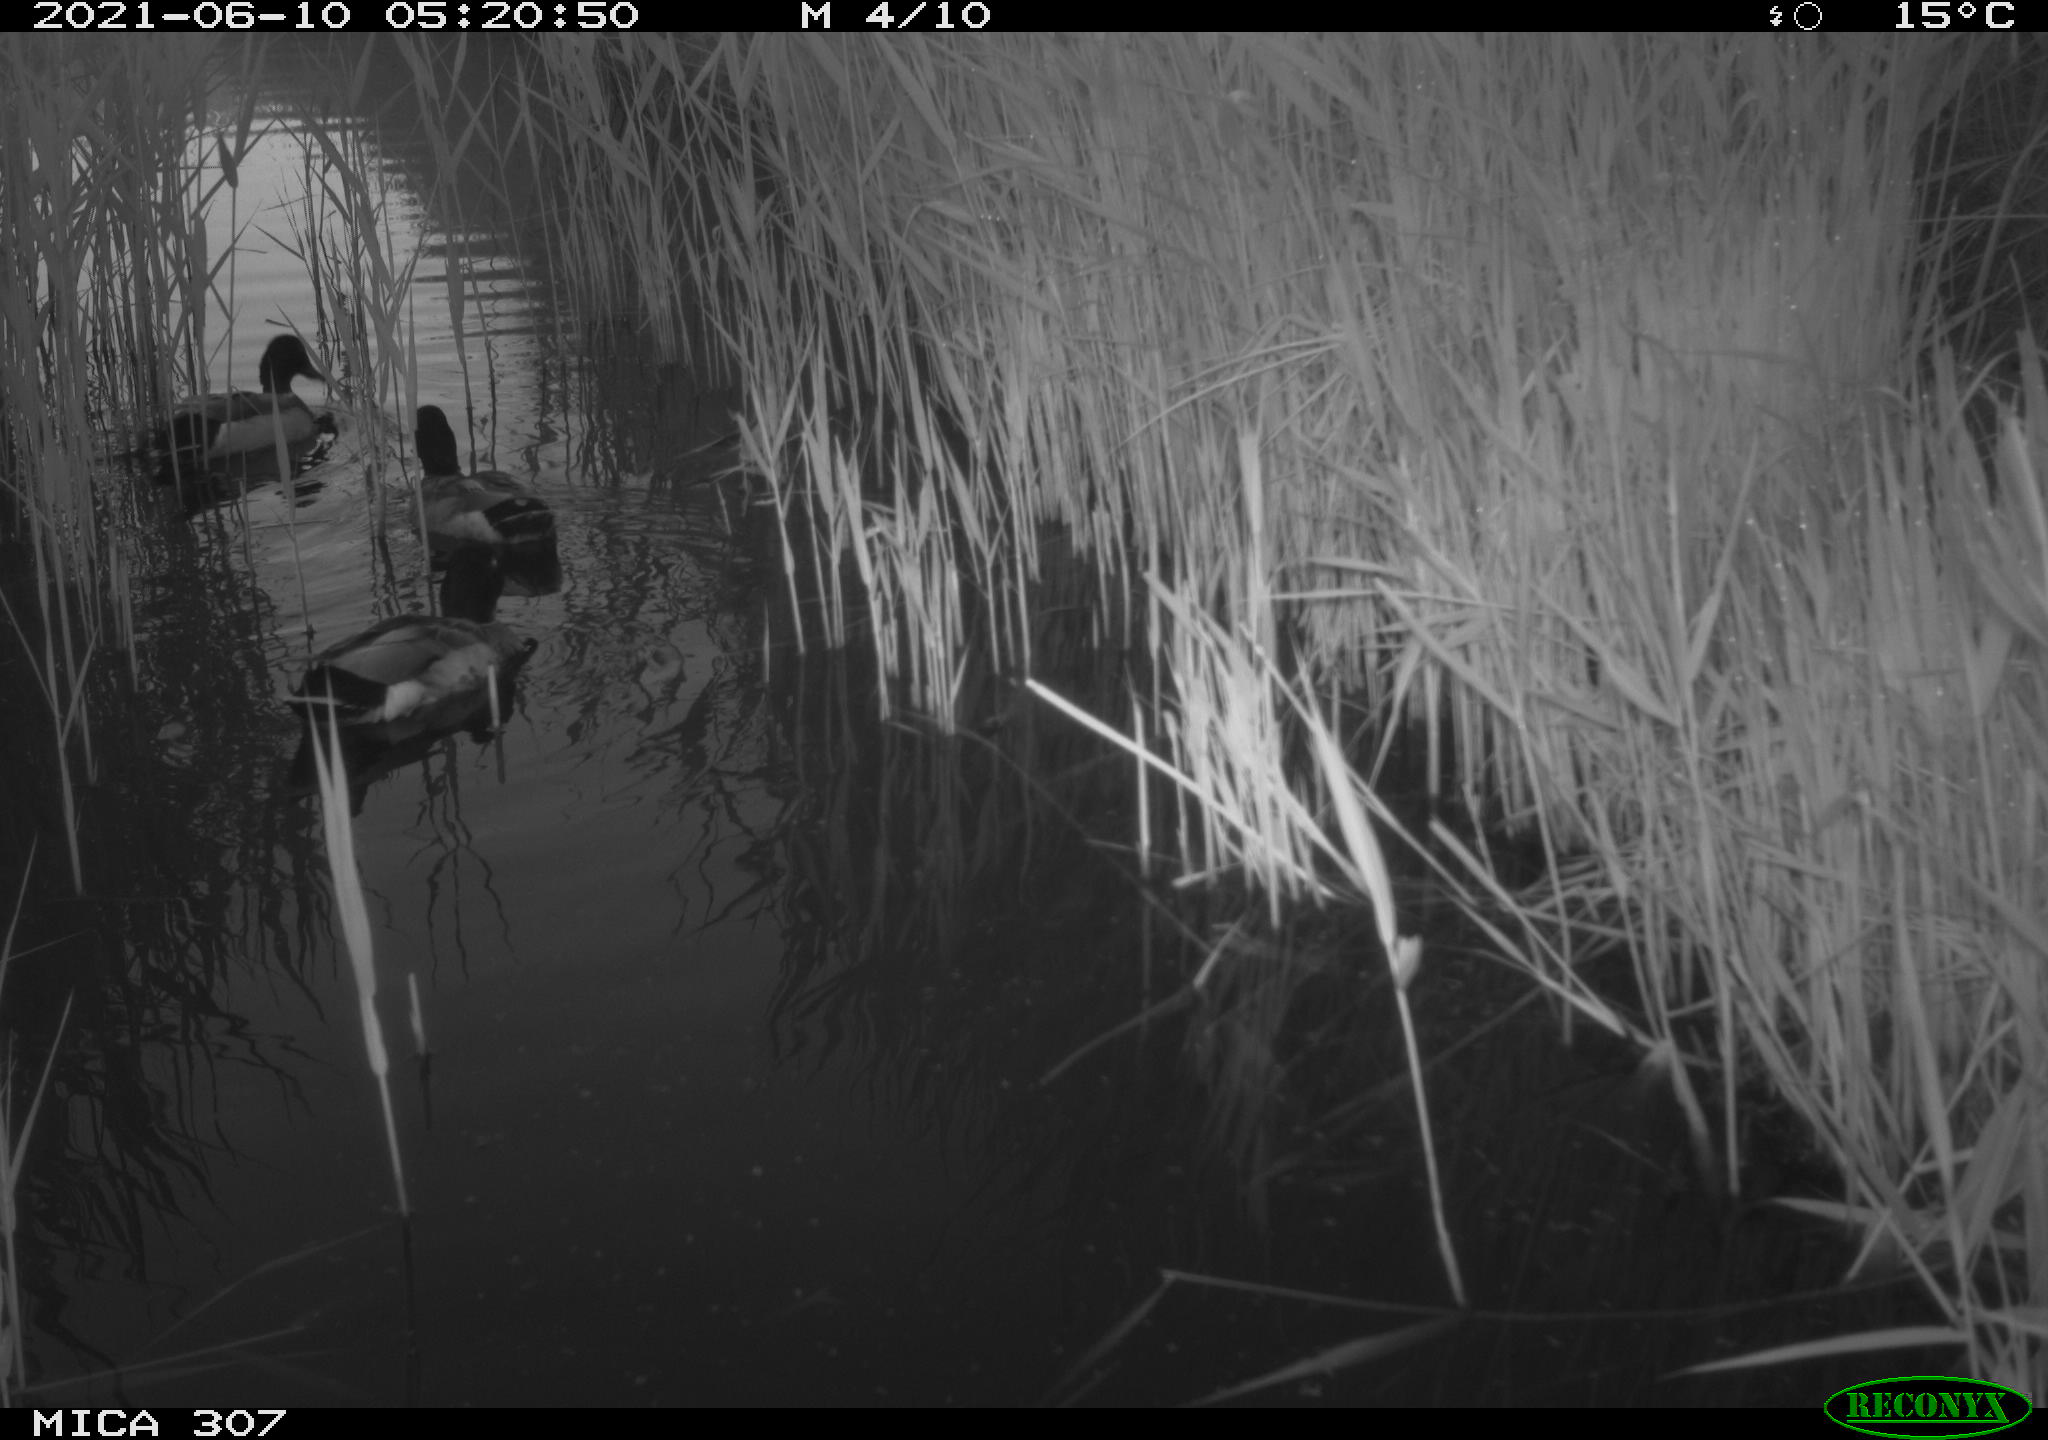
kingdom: Animalia
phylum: Chordata
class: Aves
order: Anseriformes
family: Anatidae
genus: Anas
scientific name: Anas platyrhynchos
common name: Mallard
